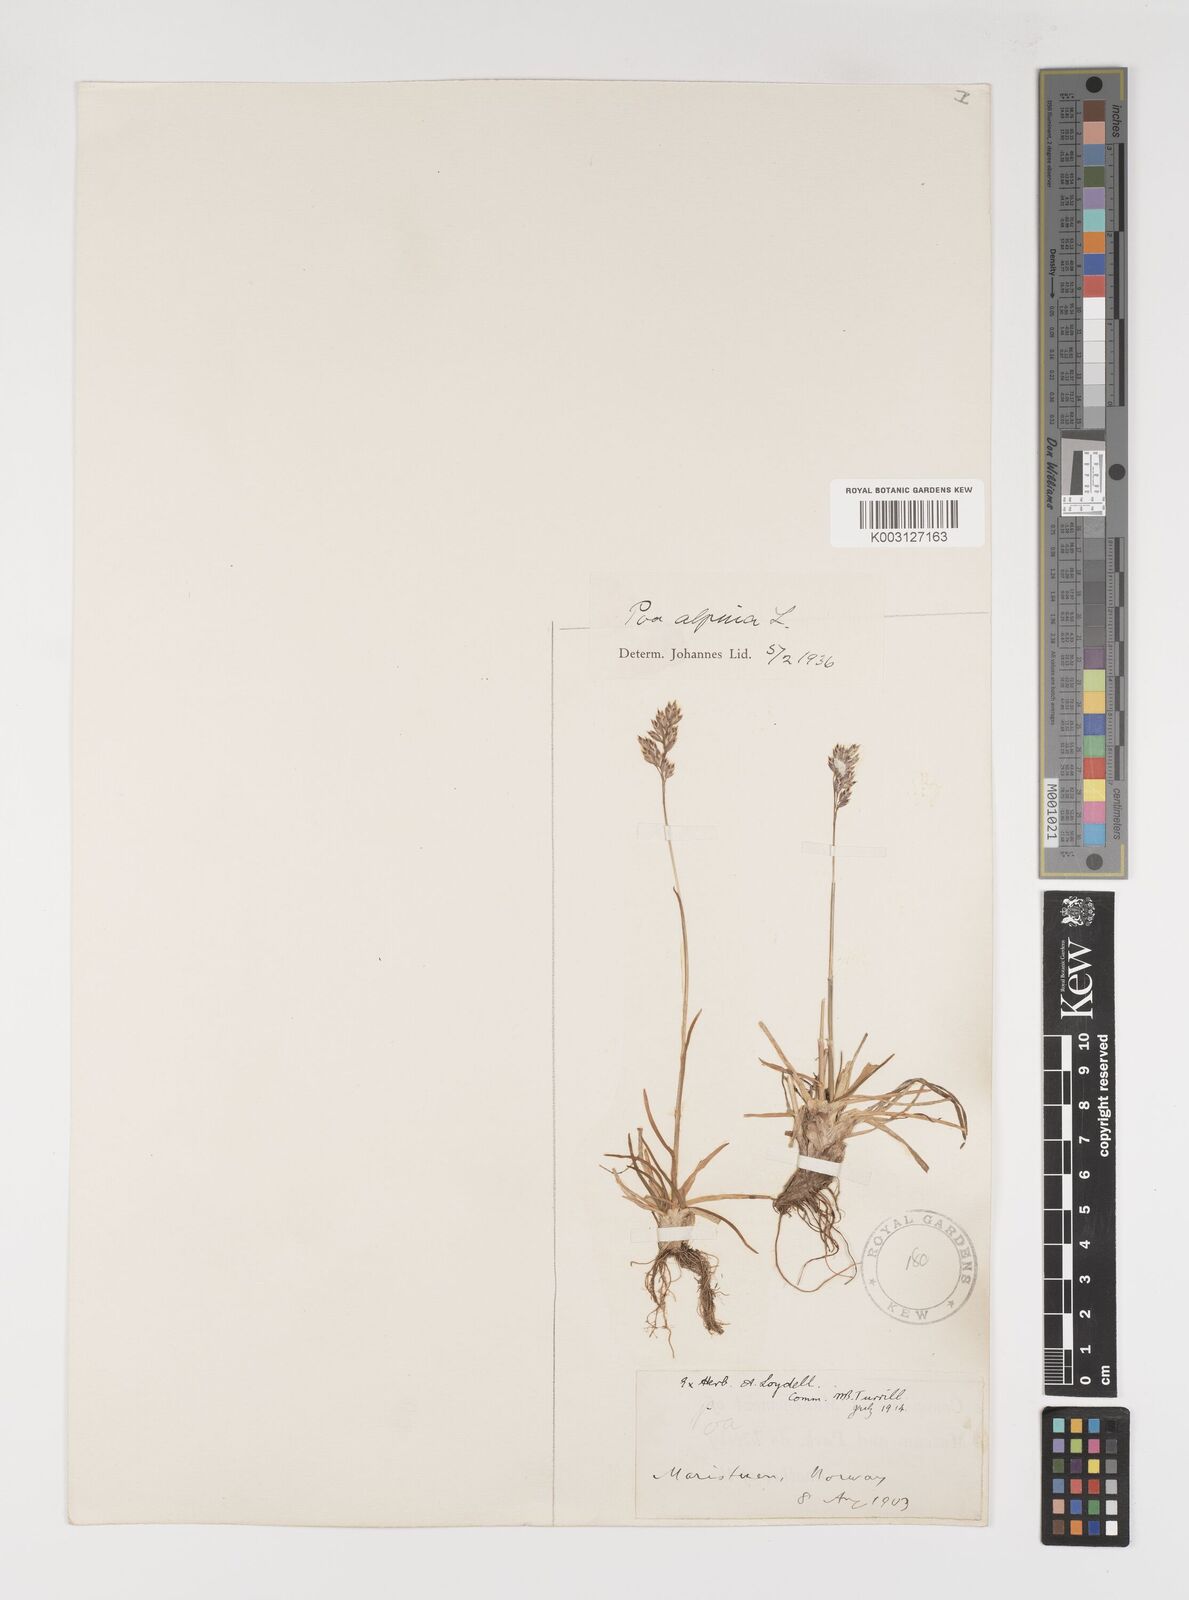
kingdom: Plantae
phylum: Tracheophyta
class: Liliopsida
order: Poales
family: Poaceae
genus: Poa
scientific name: Poa alpina
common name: Alpine bluegrass
